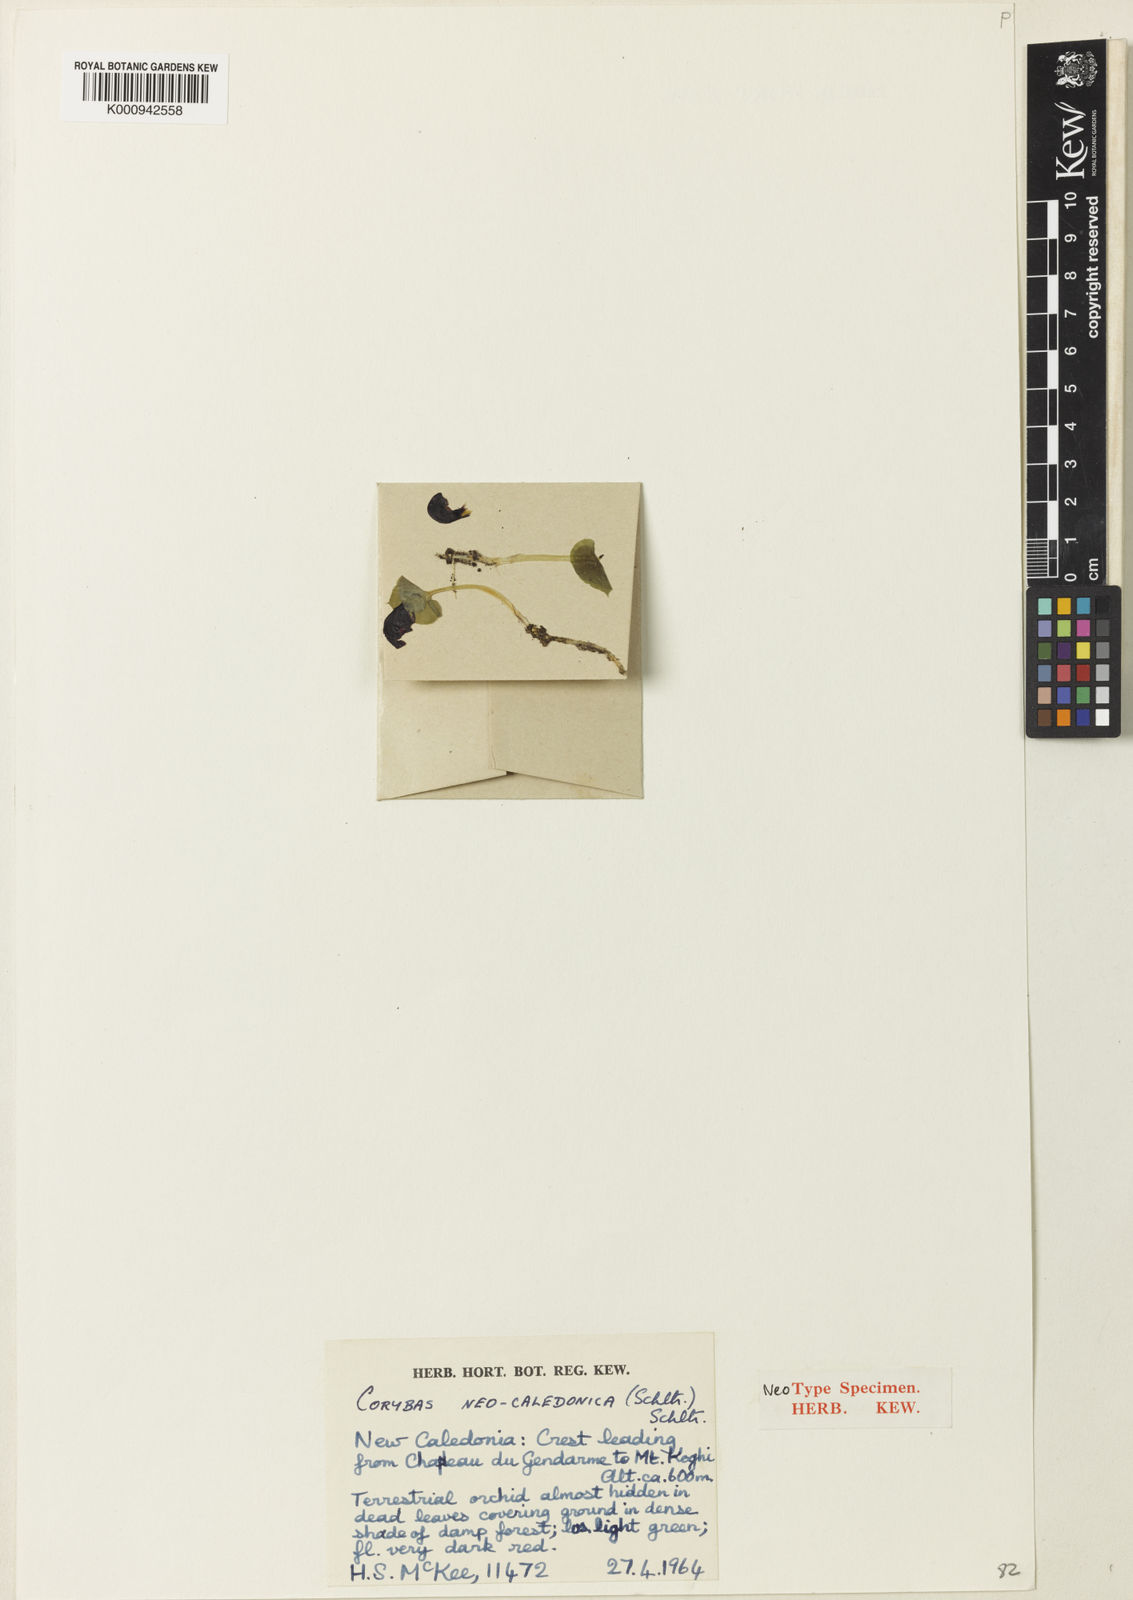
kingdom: Plantae
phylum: Tracheophyta
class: Liliopsida
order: Asparagales
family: Orchidaceae
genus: Corybas
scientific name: Corybas neocaledonicus
